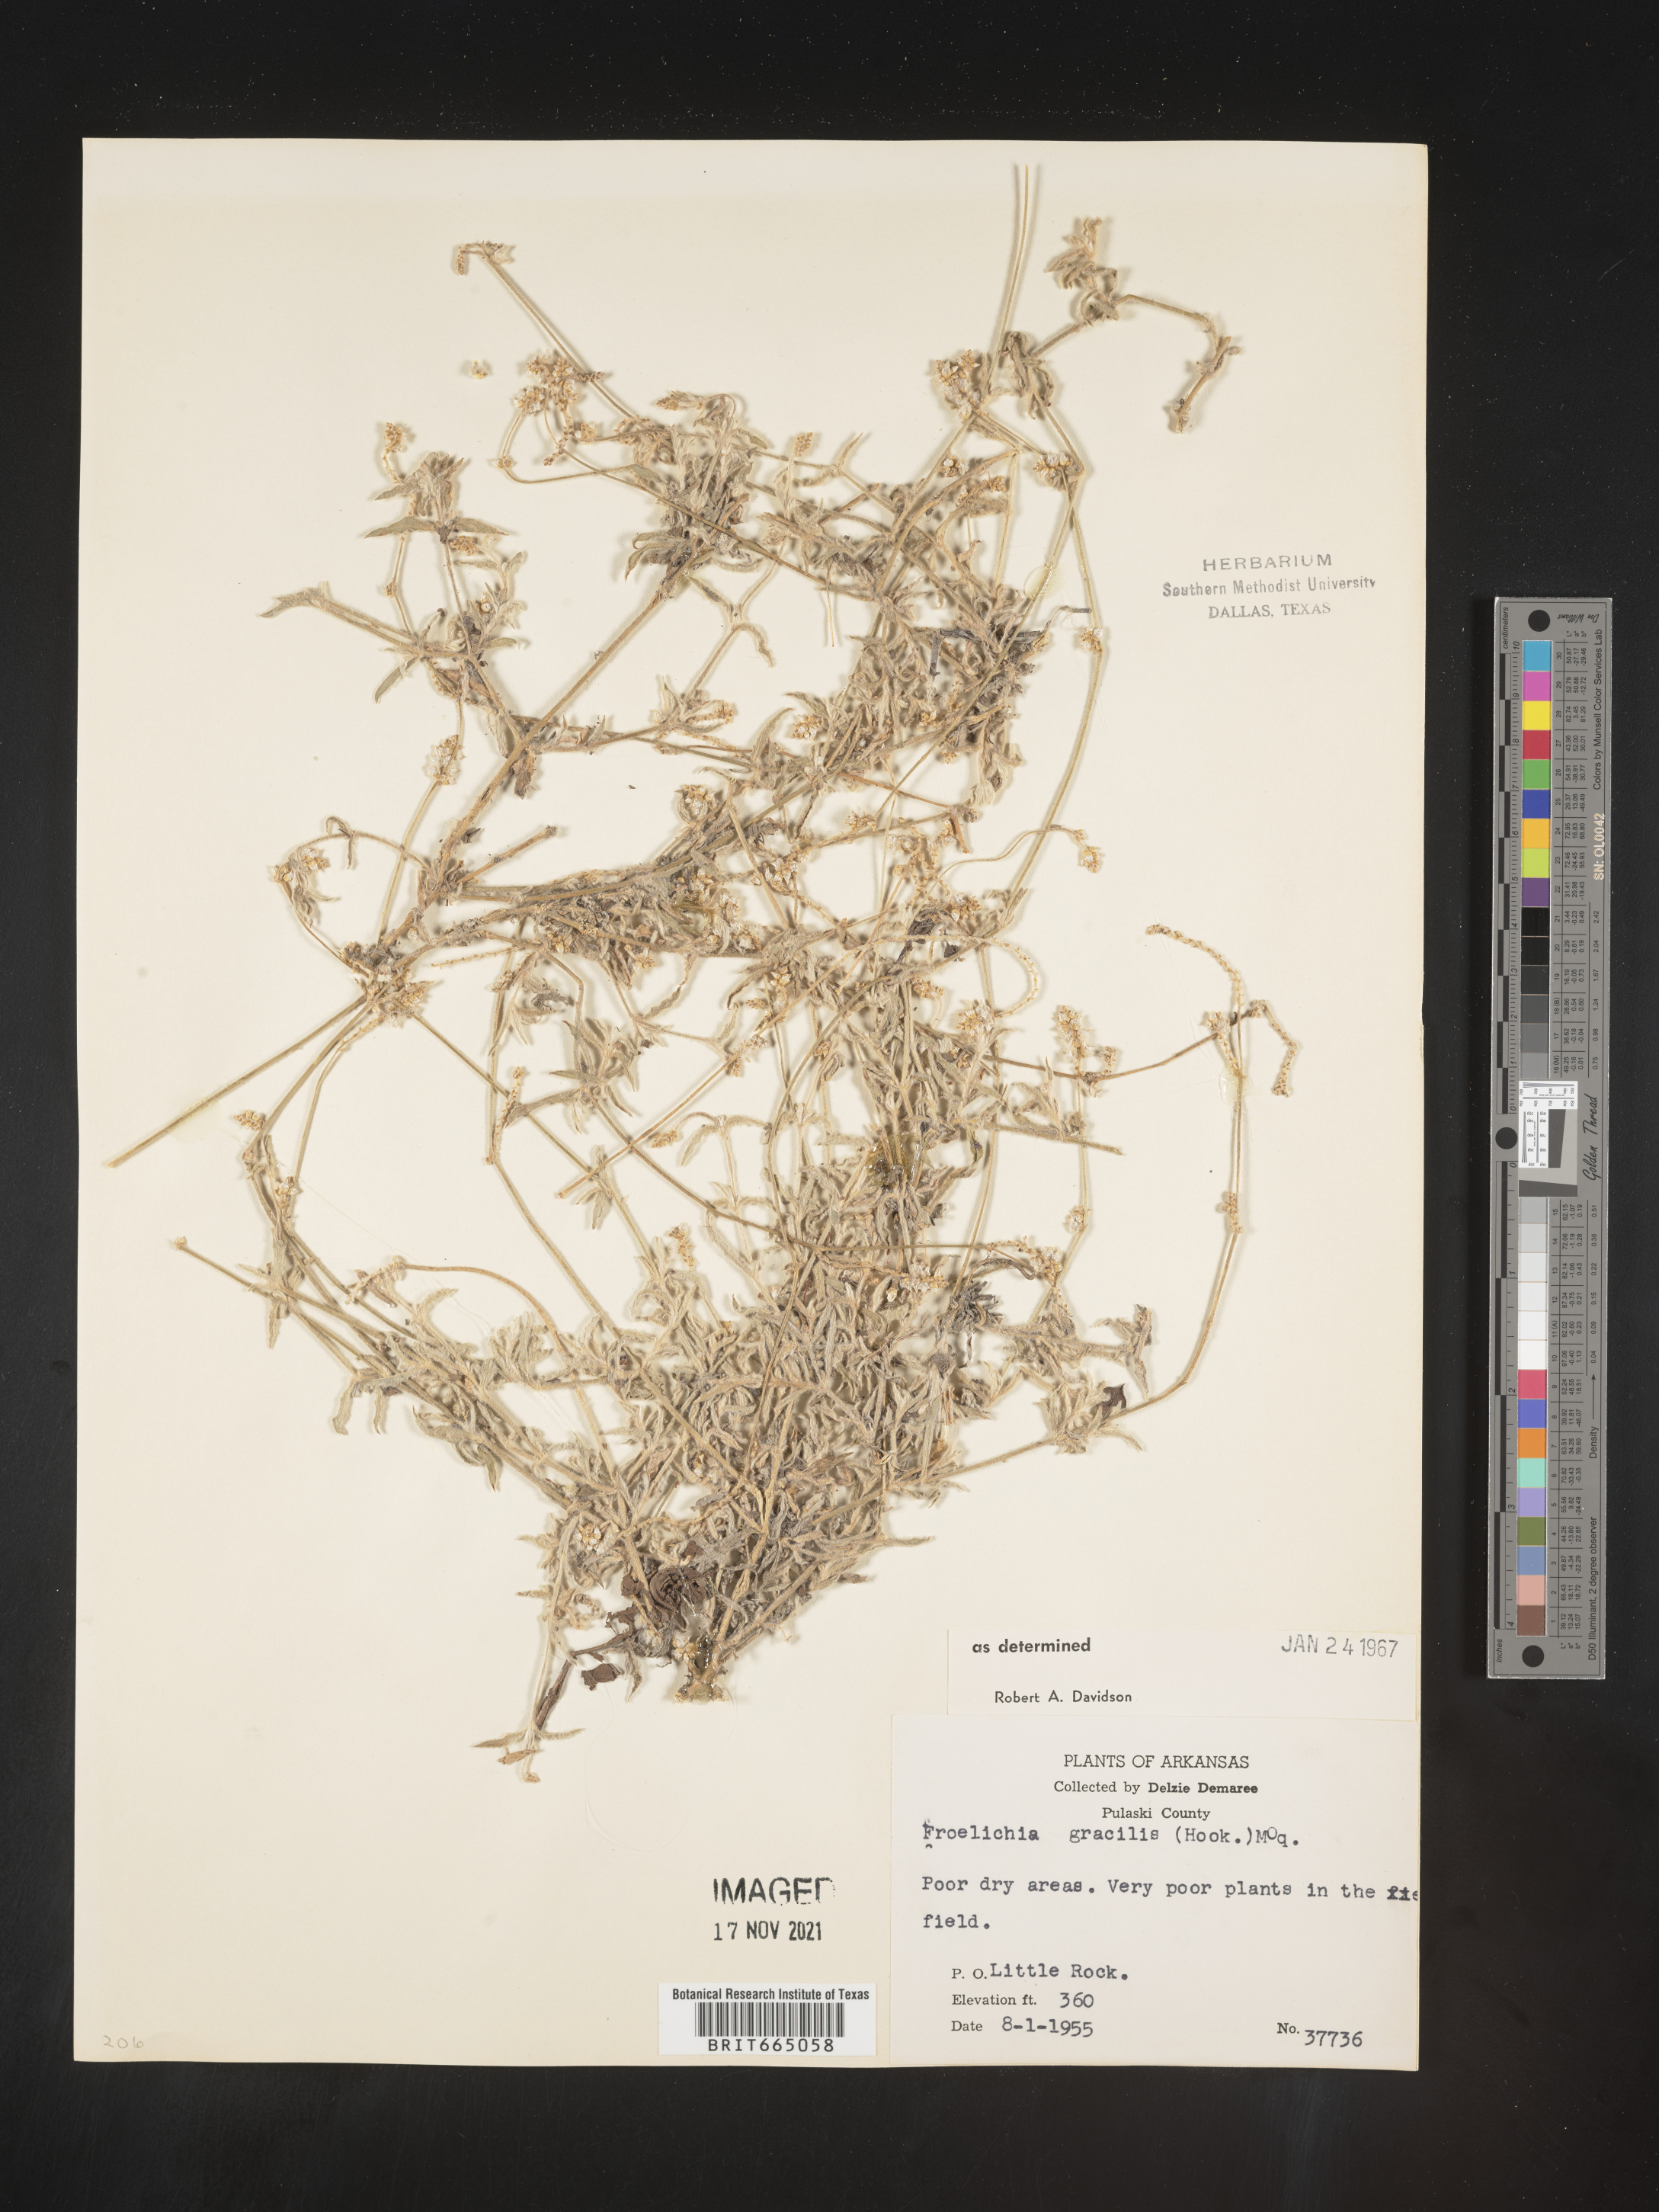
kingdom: Plantae
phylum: Tracheophyta
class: Magnoliopsida
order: Caryophyllales
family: Amaranthaceae
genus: Froelichia
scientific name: Froelichia gracilis
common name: Slender cottonweed
